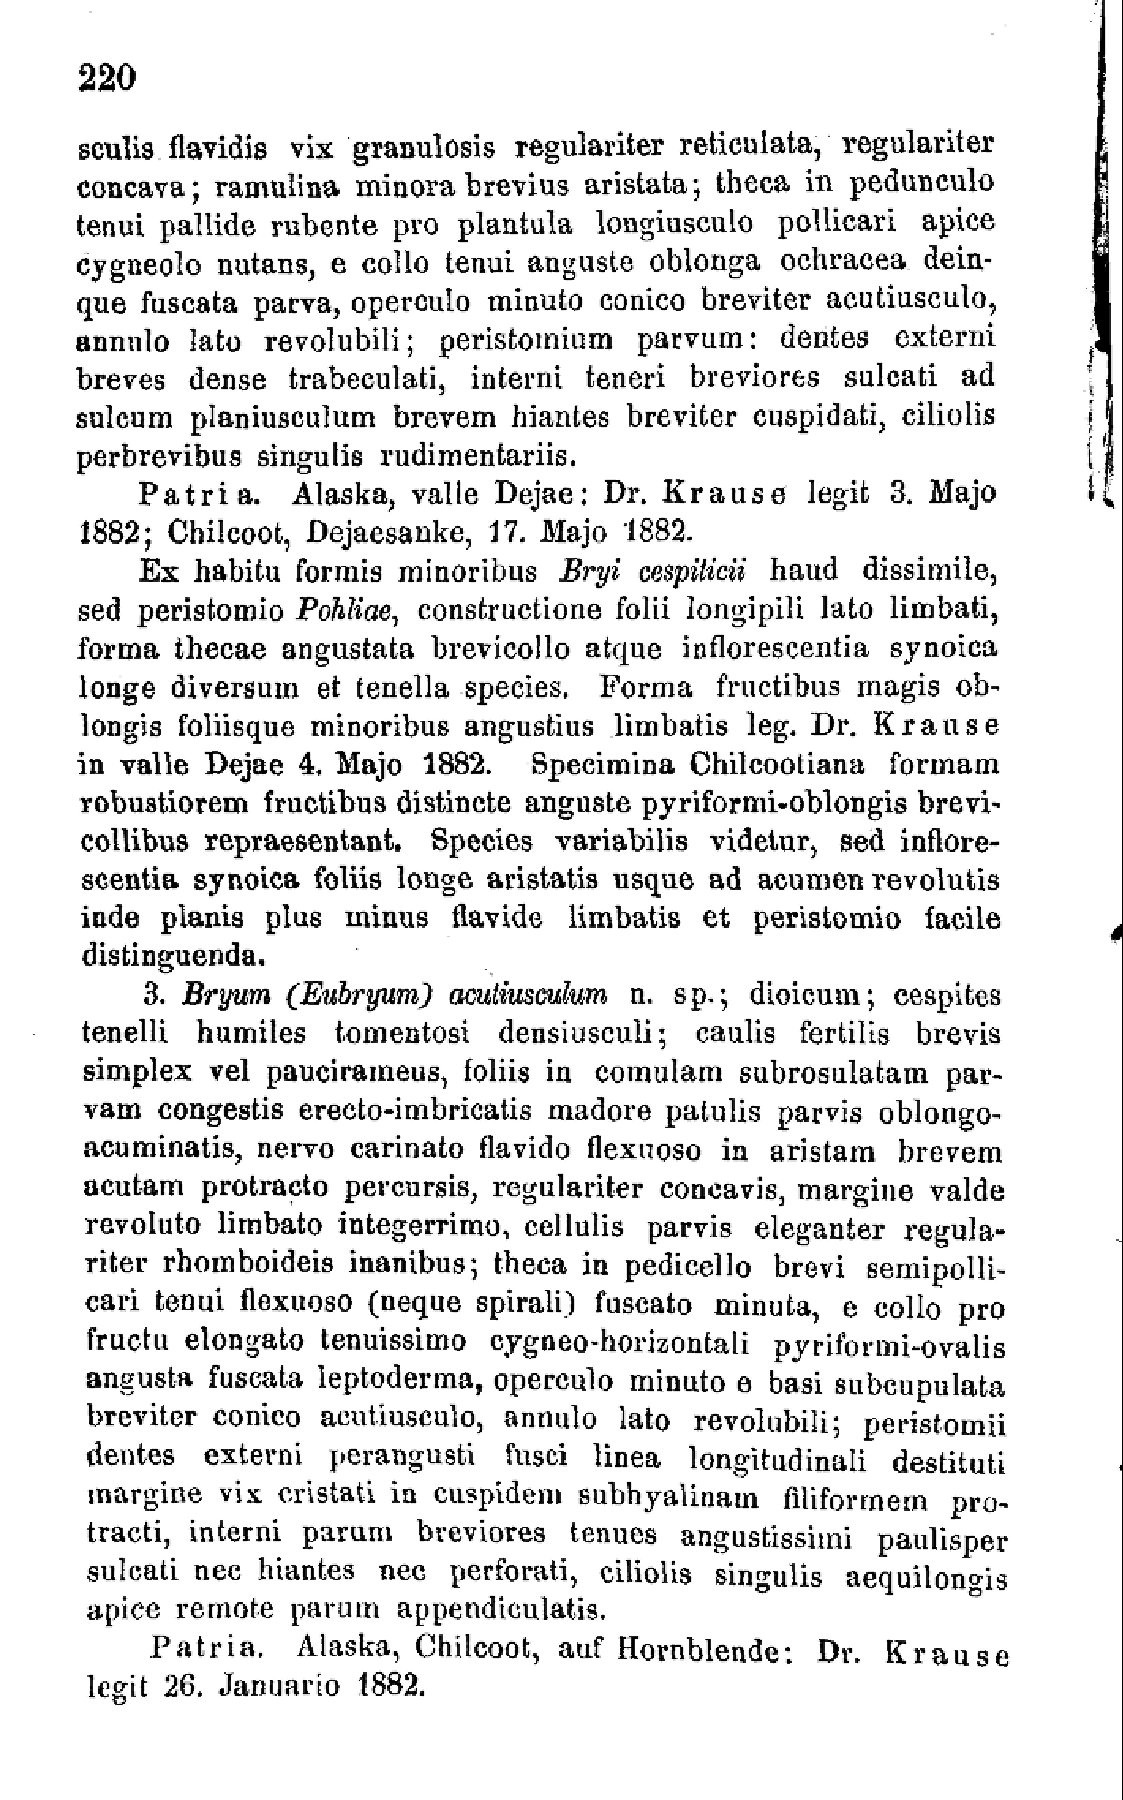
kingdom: Plantae
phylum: Bryophyta
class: Bryopsida
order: Bryales
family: Bryaceae
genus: Ptychostomum
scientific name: Ptychostomum inclinatum
